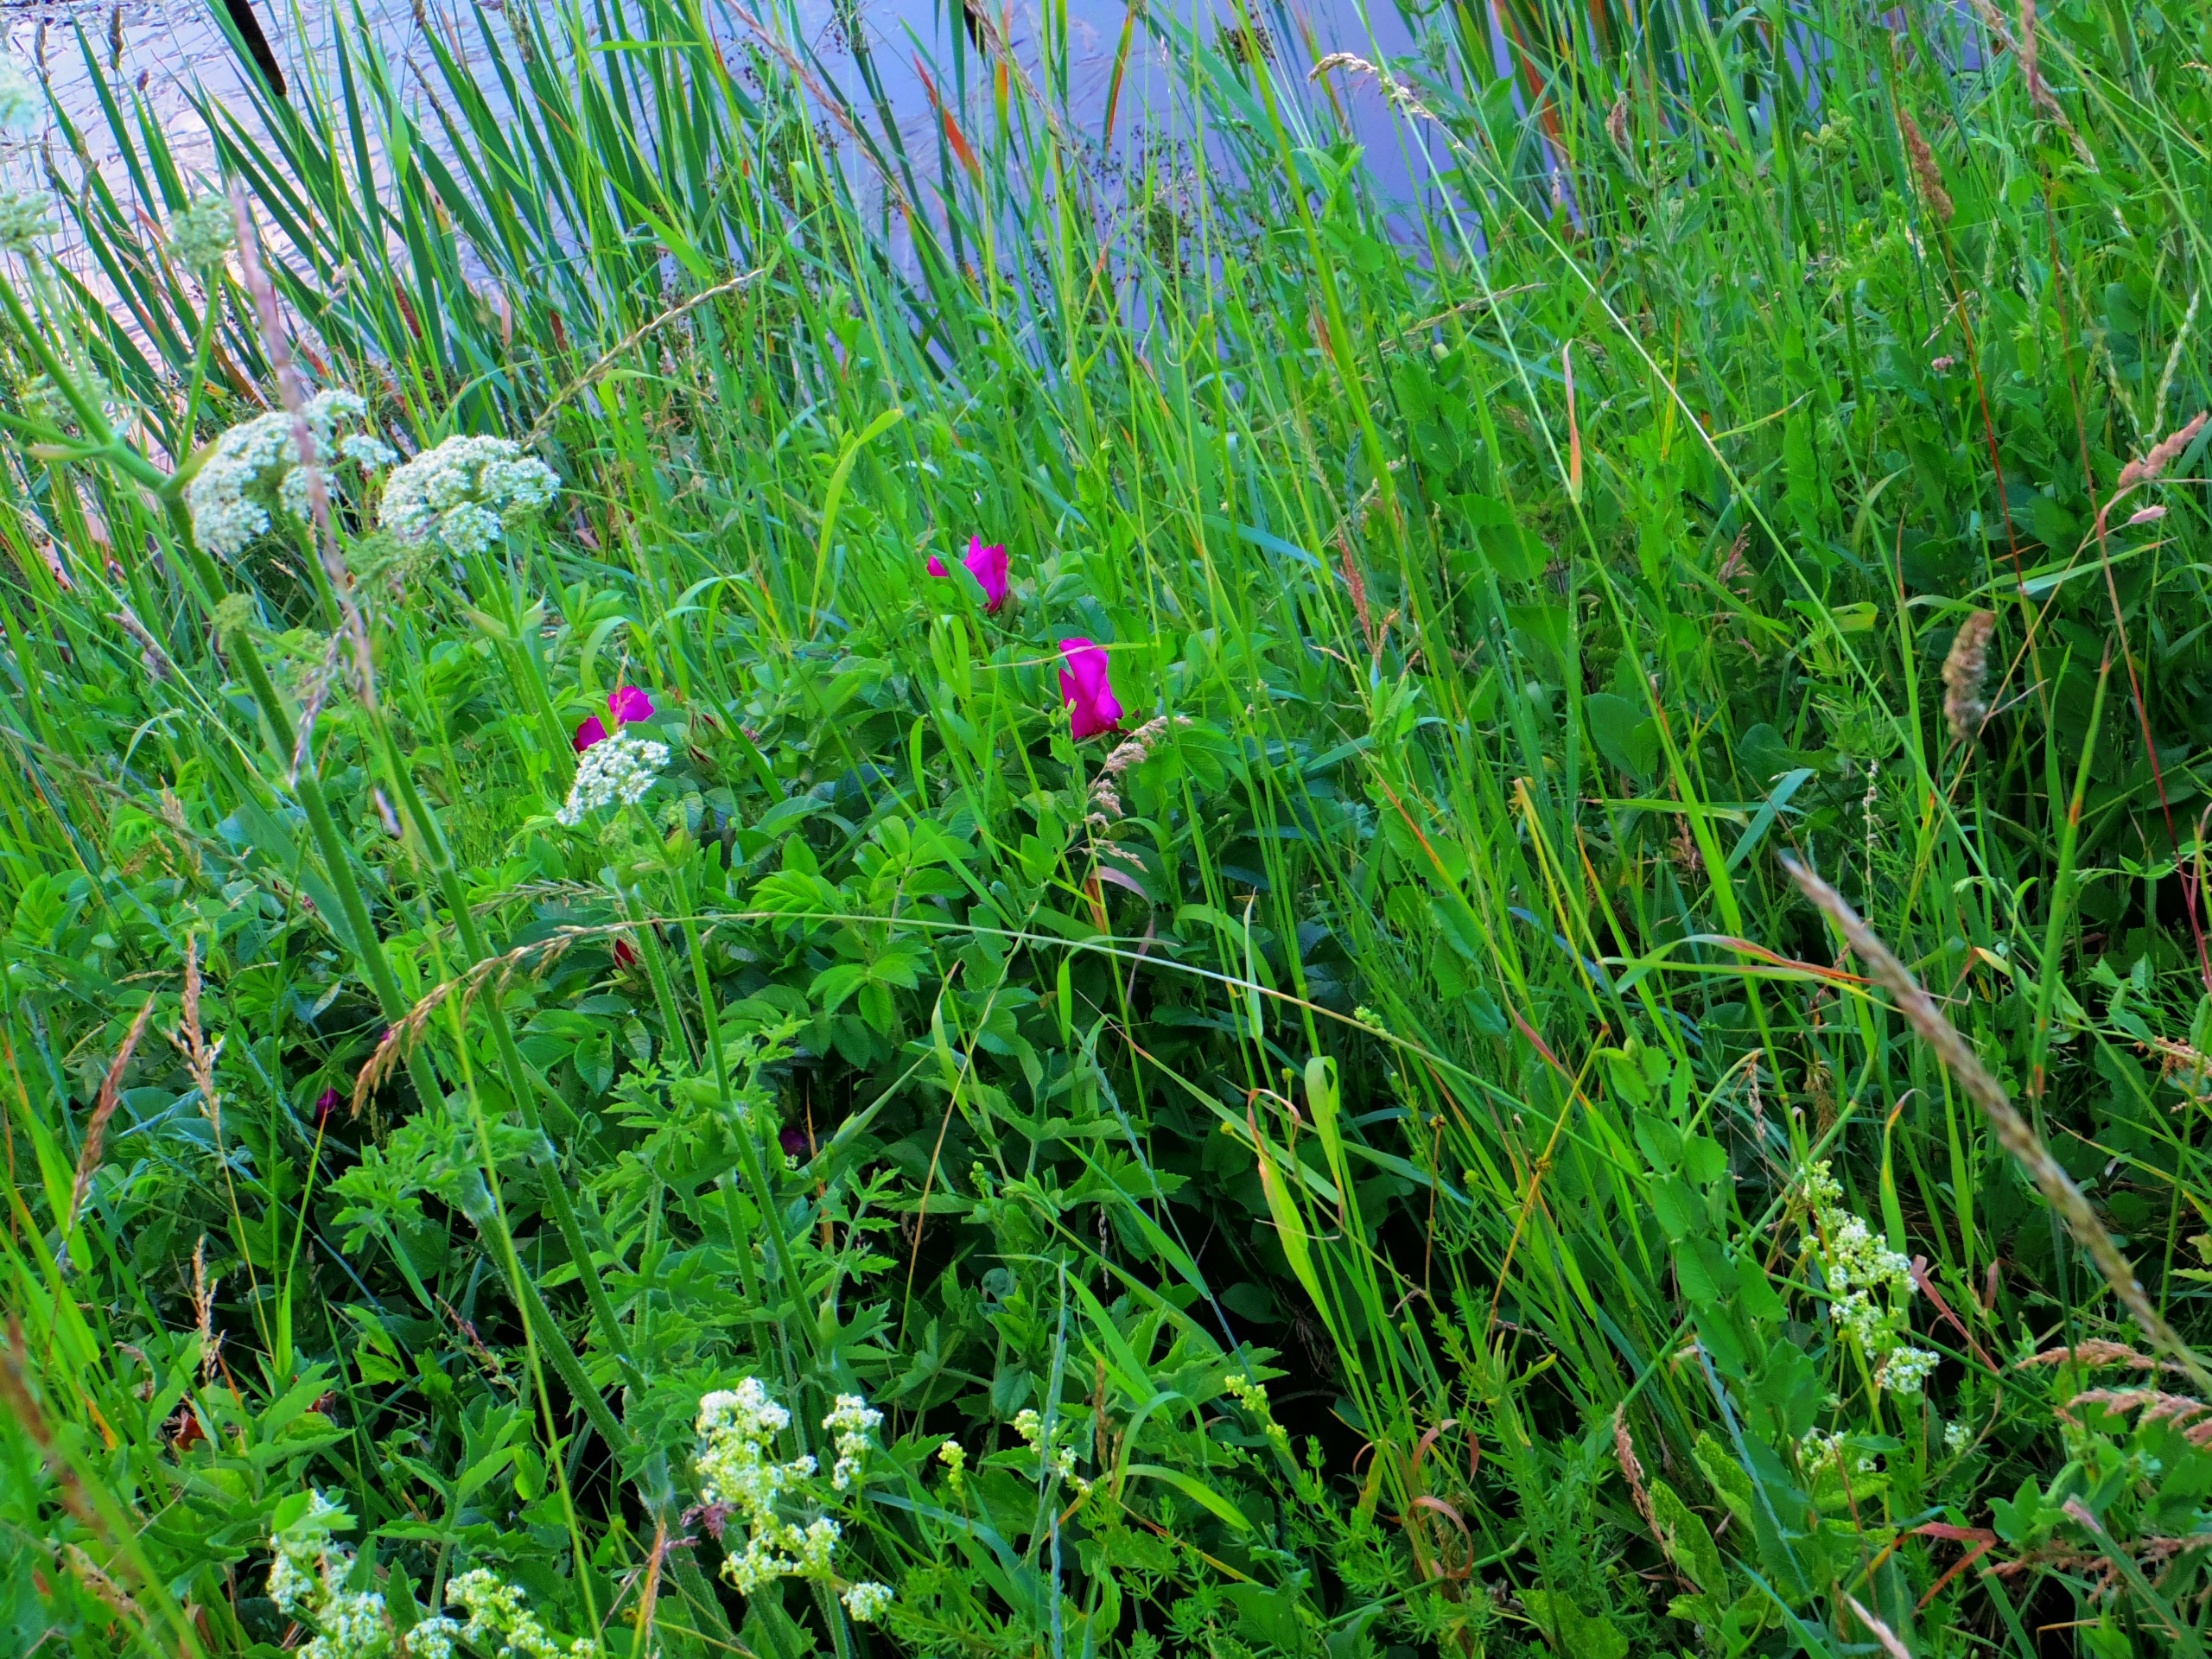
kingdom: Plantae
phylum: Tracheophyta
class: Magnoliopsida
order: Rosales
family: Rosaceae
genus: Rosa
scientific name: Rosa rugosa
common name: Rynket rose
